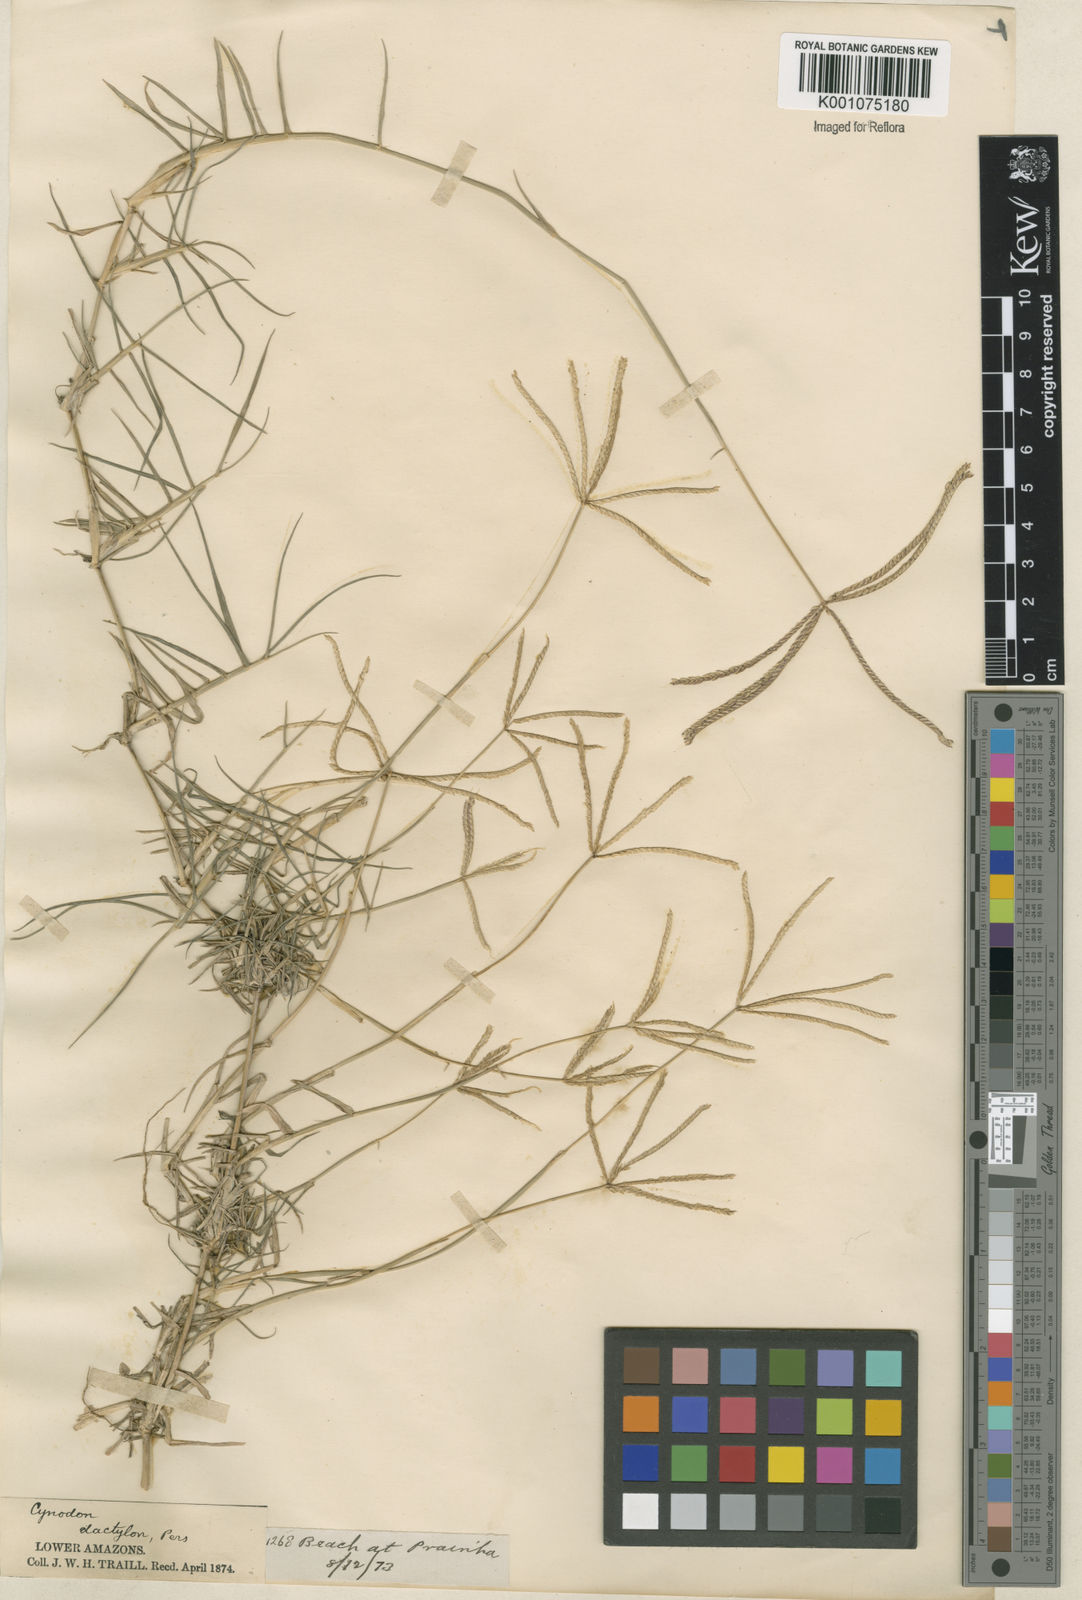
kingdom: Plantae
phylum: Tracheophyta
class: Liliopsida
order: Poales
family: Poaceae
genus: Cynodon
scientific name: Cynodon dactylon
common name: Bermuda grass
